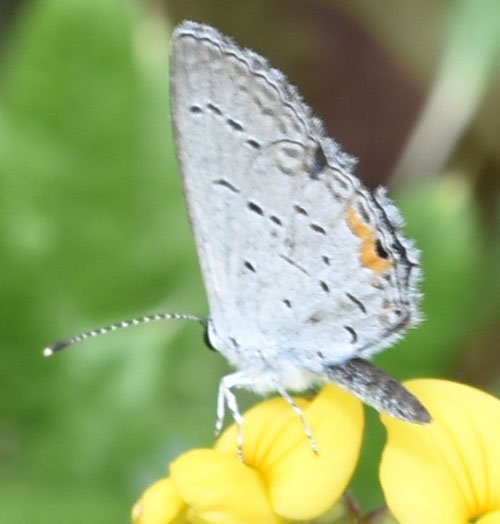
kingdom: Animalia
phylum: Arthropoda
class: Insecta
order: Lepidoptera
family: Lycaenidae
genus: Elkalyce
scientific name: Elkalyce comyntas
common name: Eastern Tailed-Blue
